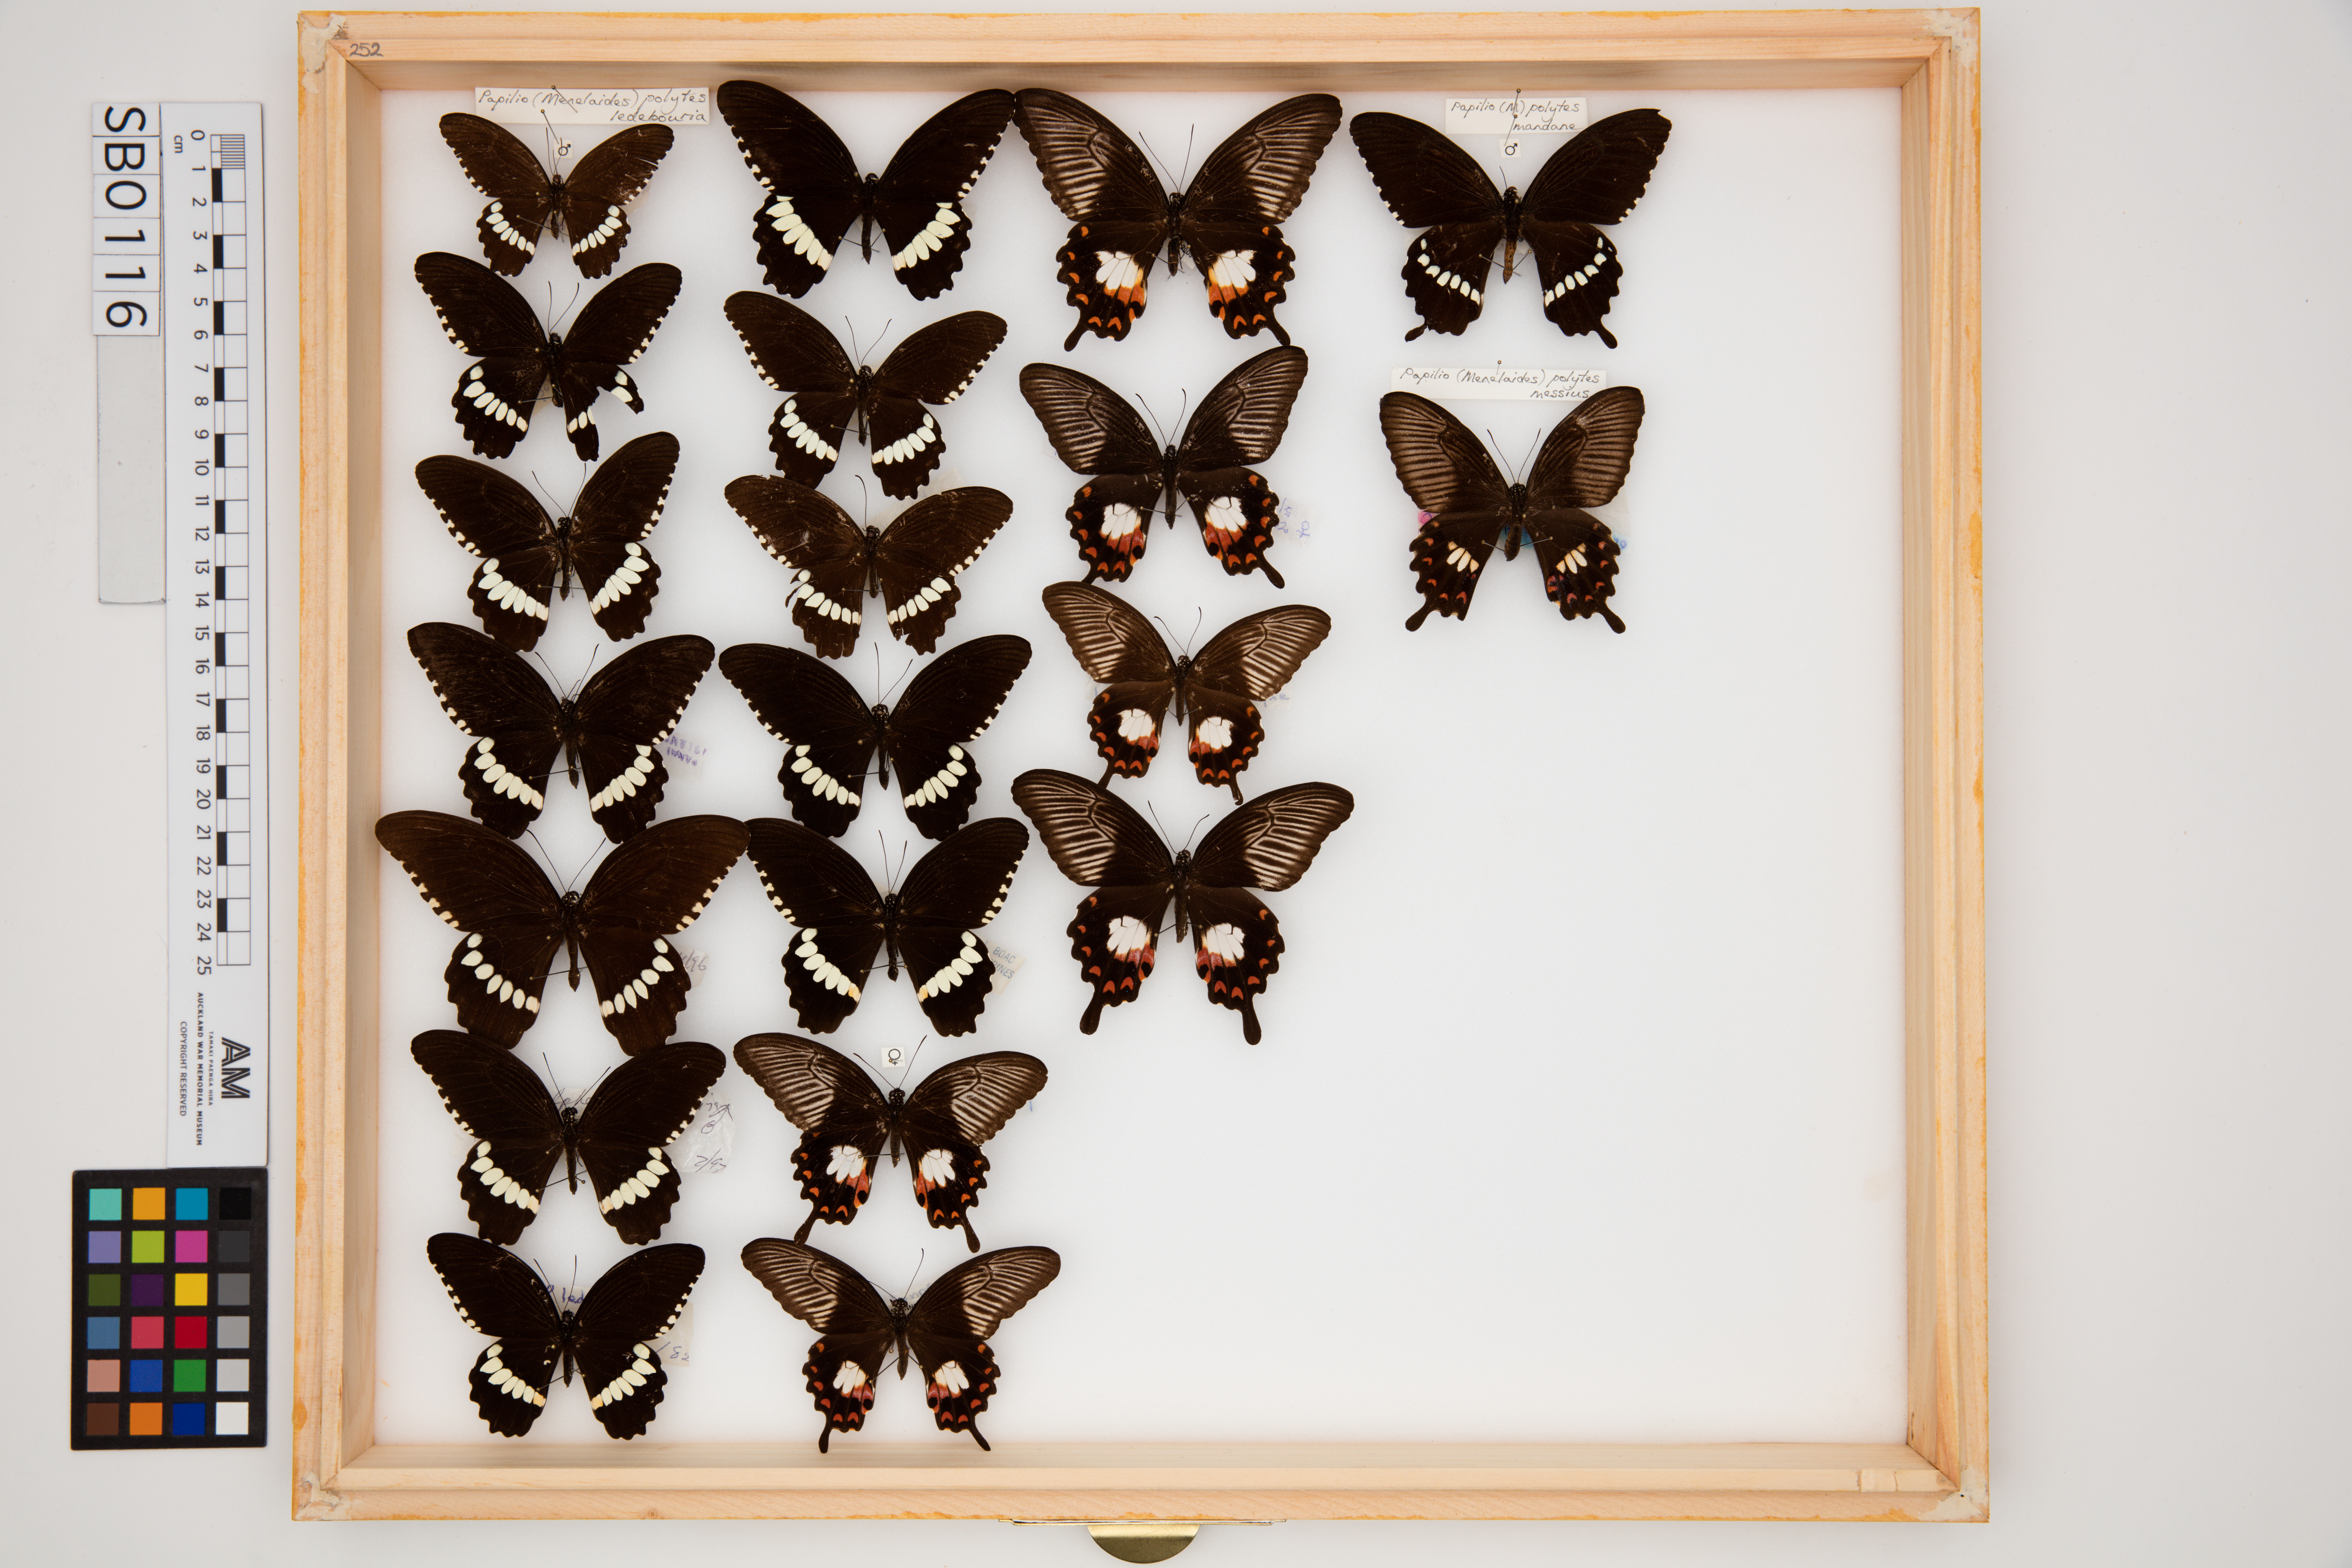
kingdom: Animalia
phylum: Arthropoda
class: Insecta
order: Lepidoptera
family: Papilionidae
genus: Papilio
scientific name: Papilio polytes
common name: Common mormon
